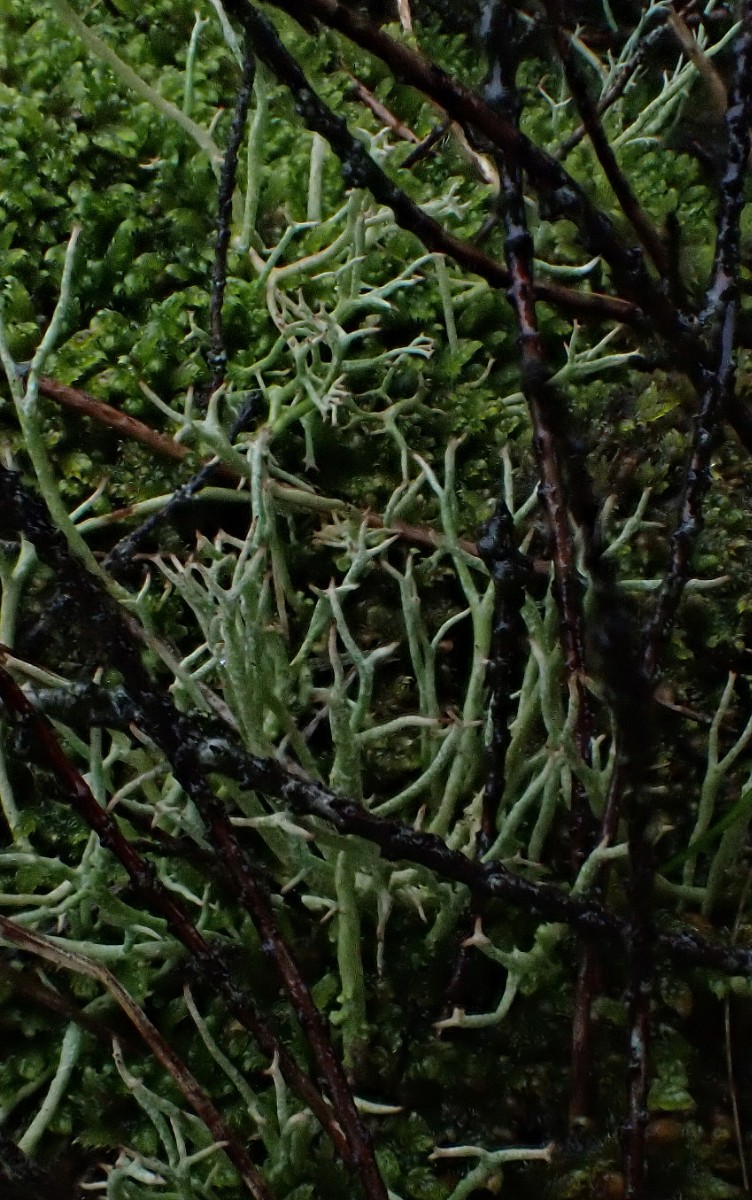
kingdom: Fungi
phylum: Ascomycota
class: Lecanoromycetes
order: Lecanorales
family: Cladoniaceae
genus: Cladonia
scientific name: Cladonia furcata
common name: kløftet bægerlav
